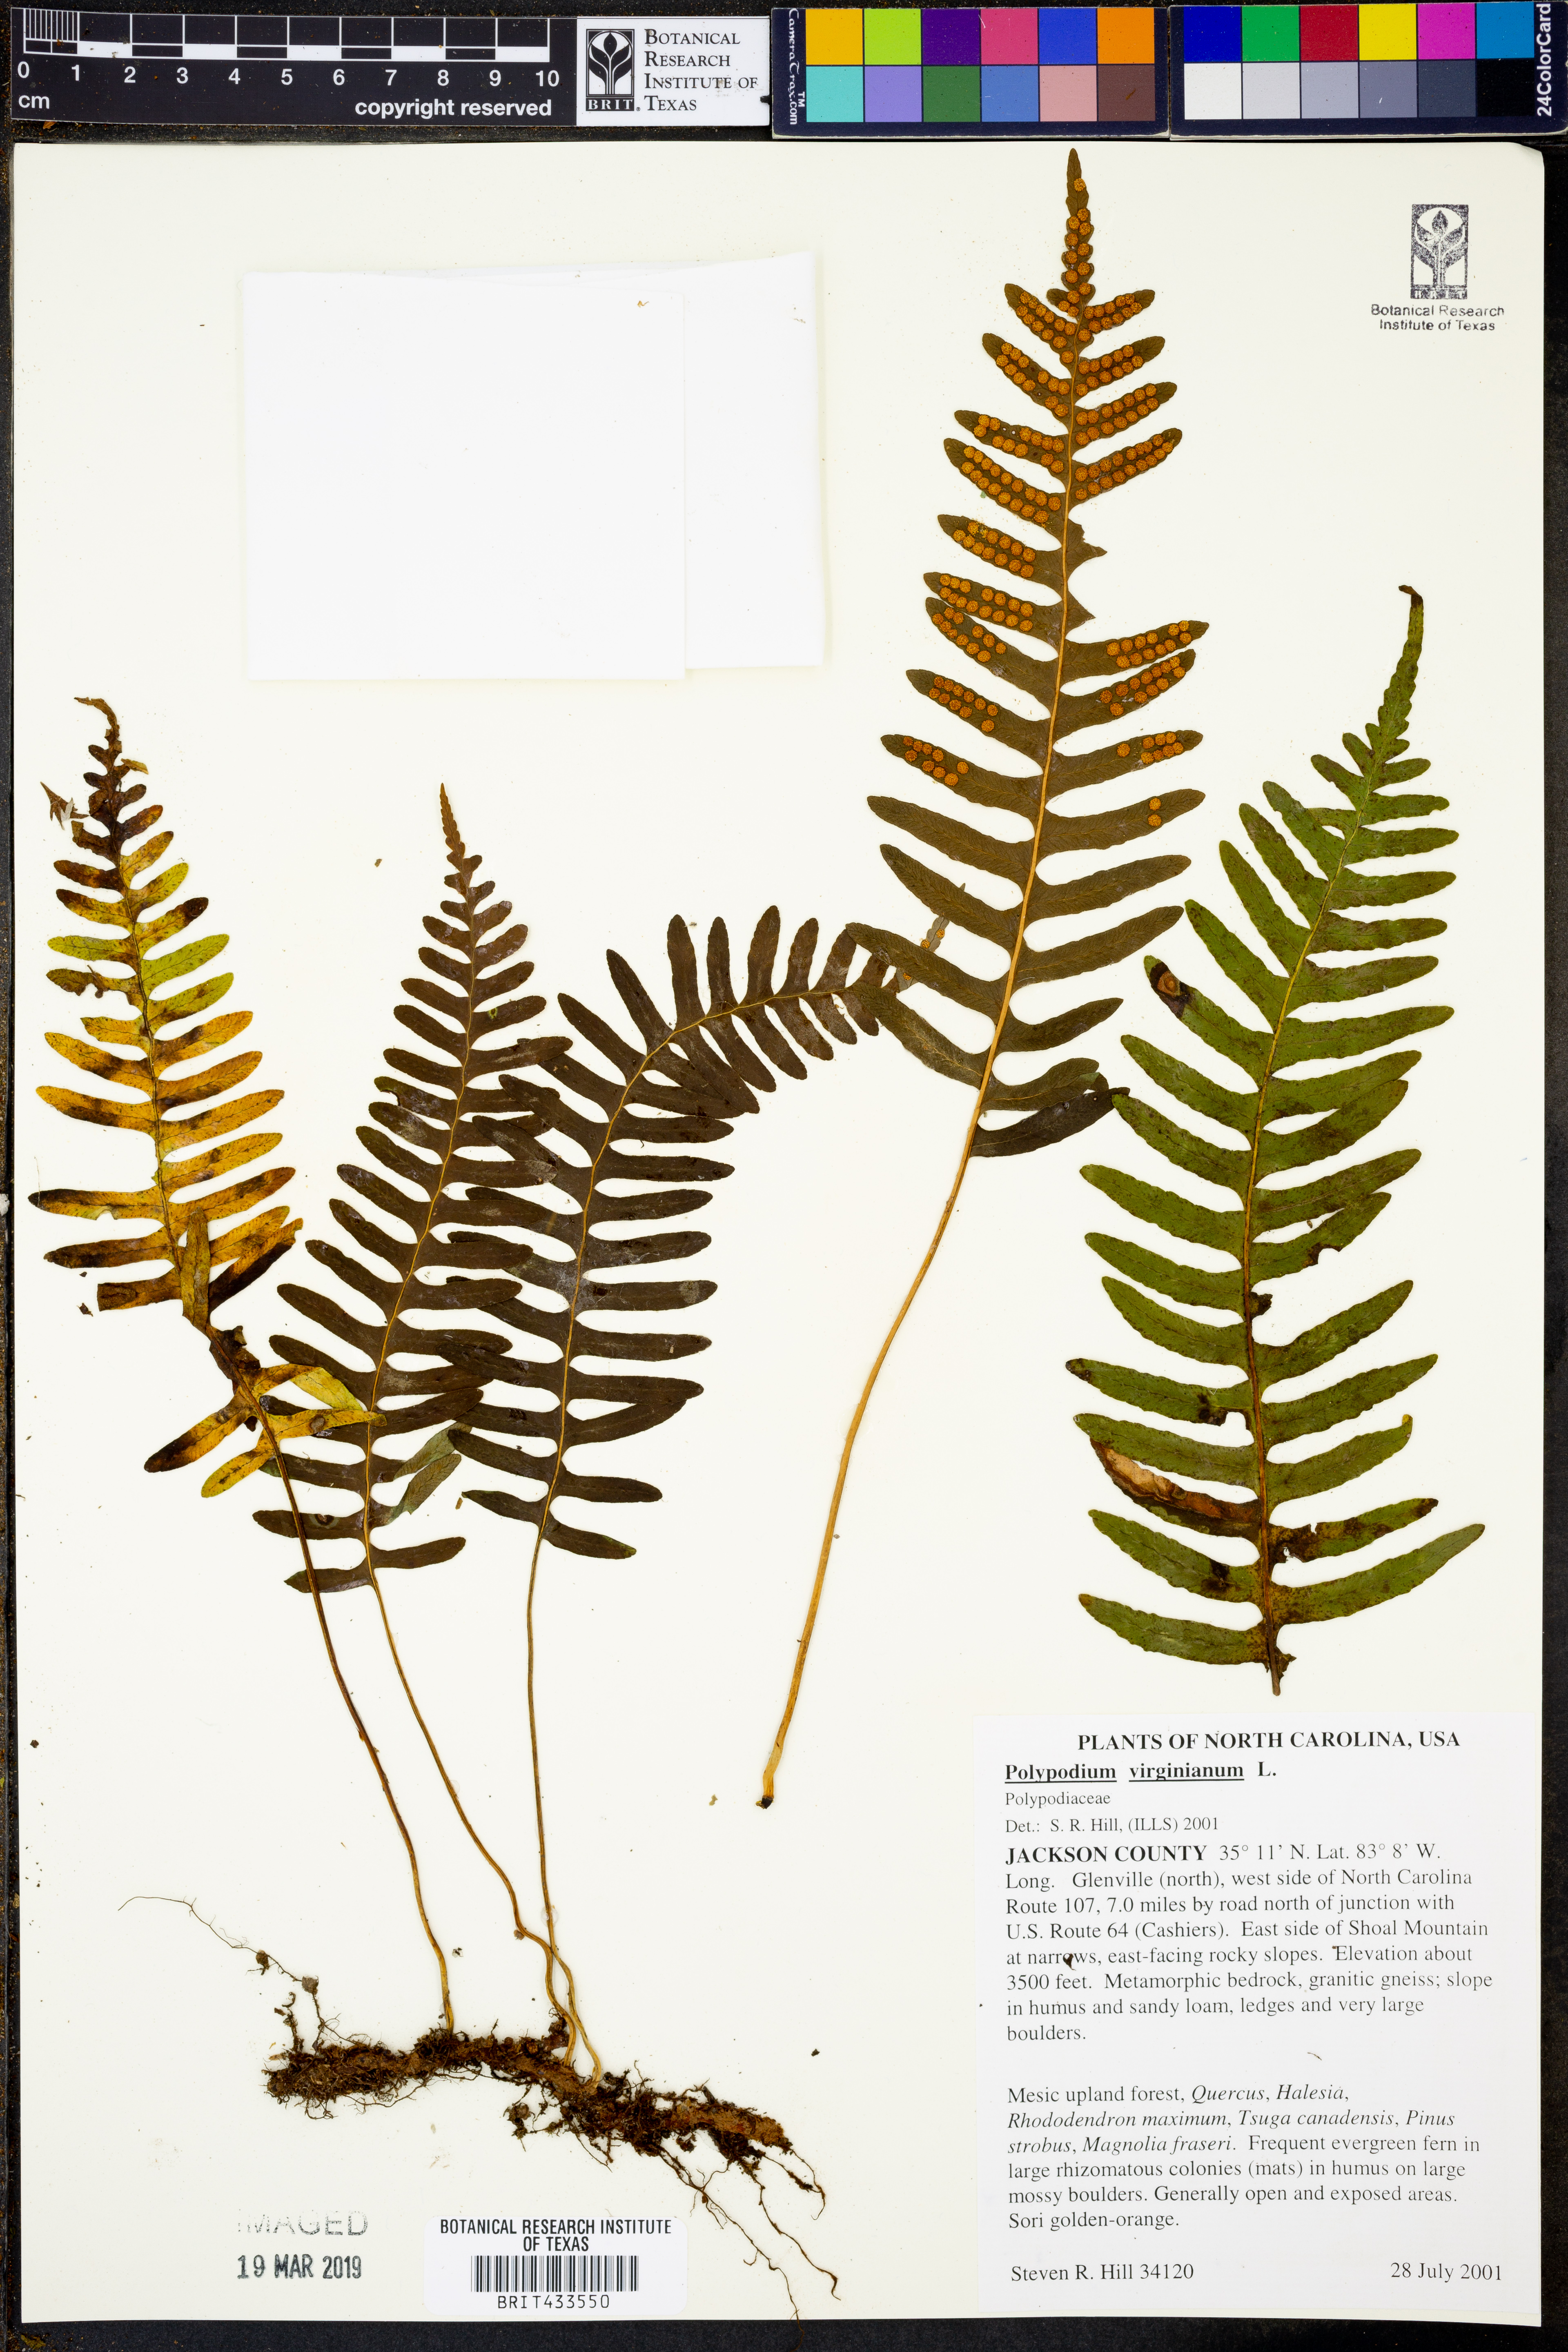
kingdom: Plantae
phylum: Tracheophyta
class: Polypodiopsida
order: Polypodiales
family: Polypodiaceae
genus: Polypodium
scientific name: Polypodium virginianum
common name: American wall fern
